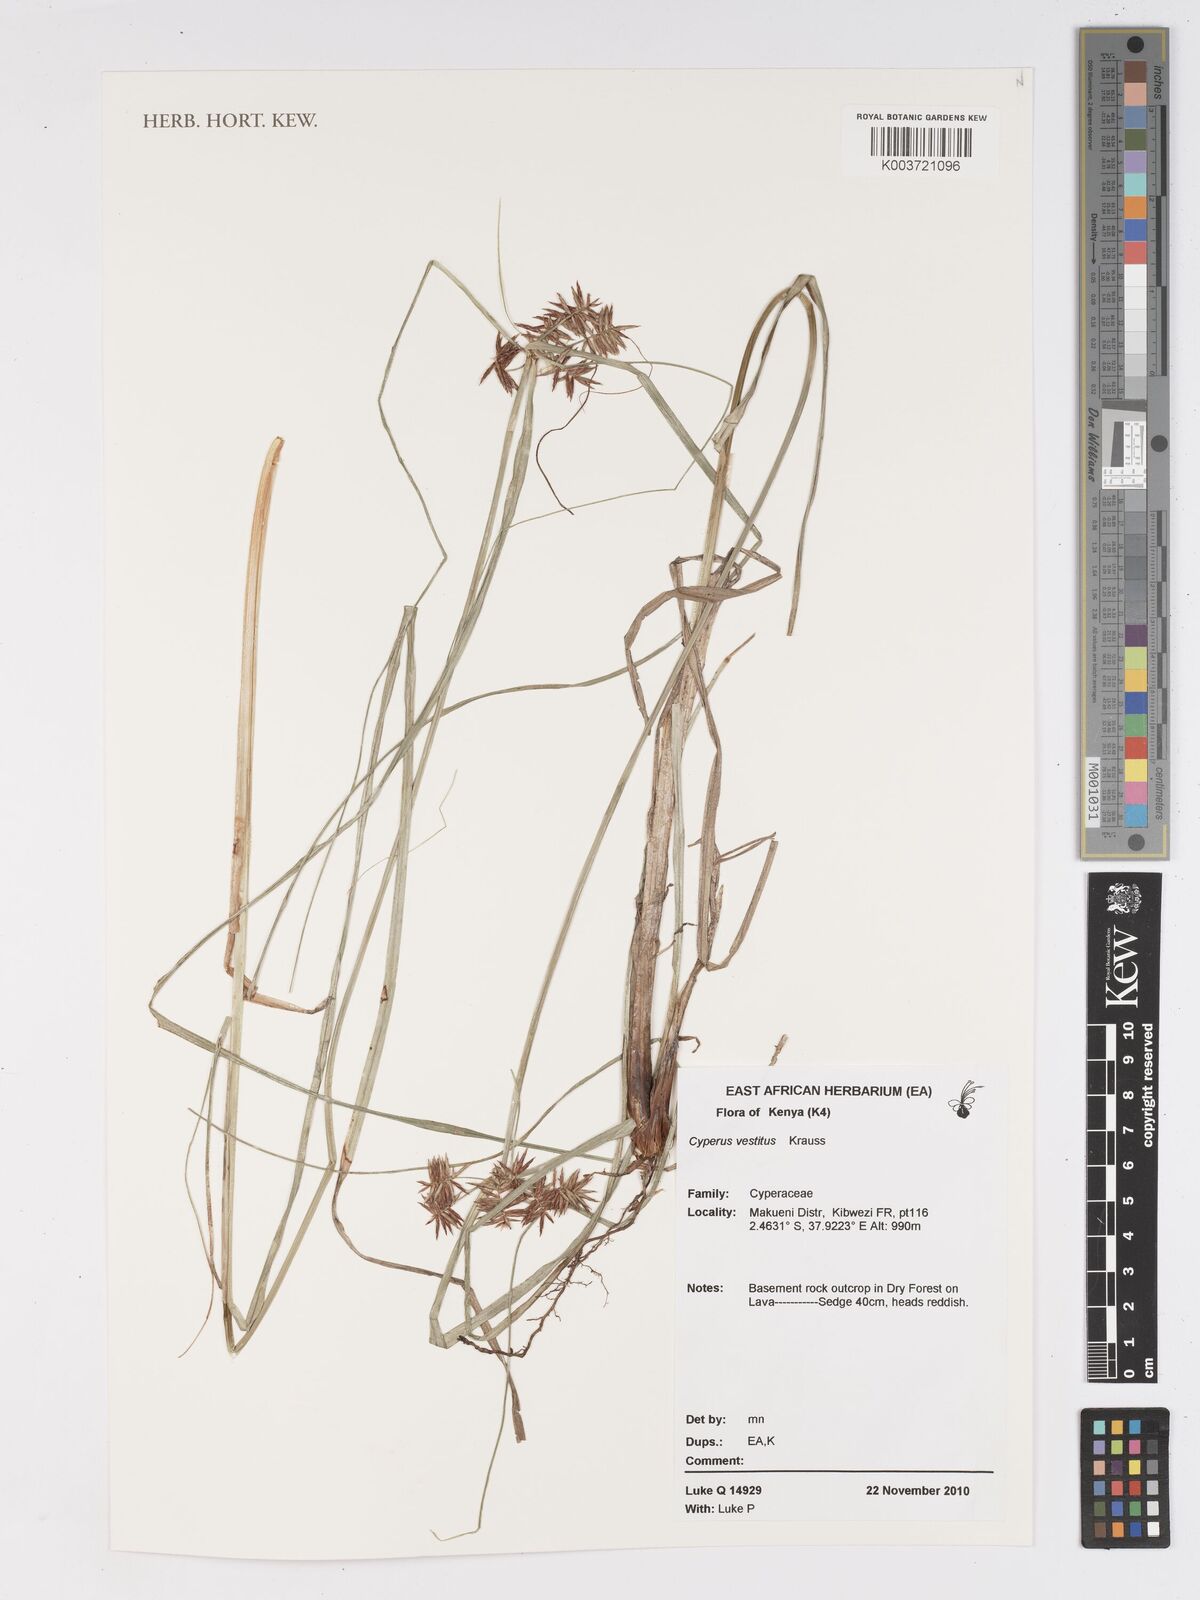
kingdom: Plantae
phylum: Tracheophyta
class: Liliopsida
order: Poales
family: Cyperaceae
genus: Cyperus
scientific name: Cyperus vestitus
